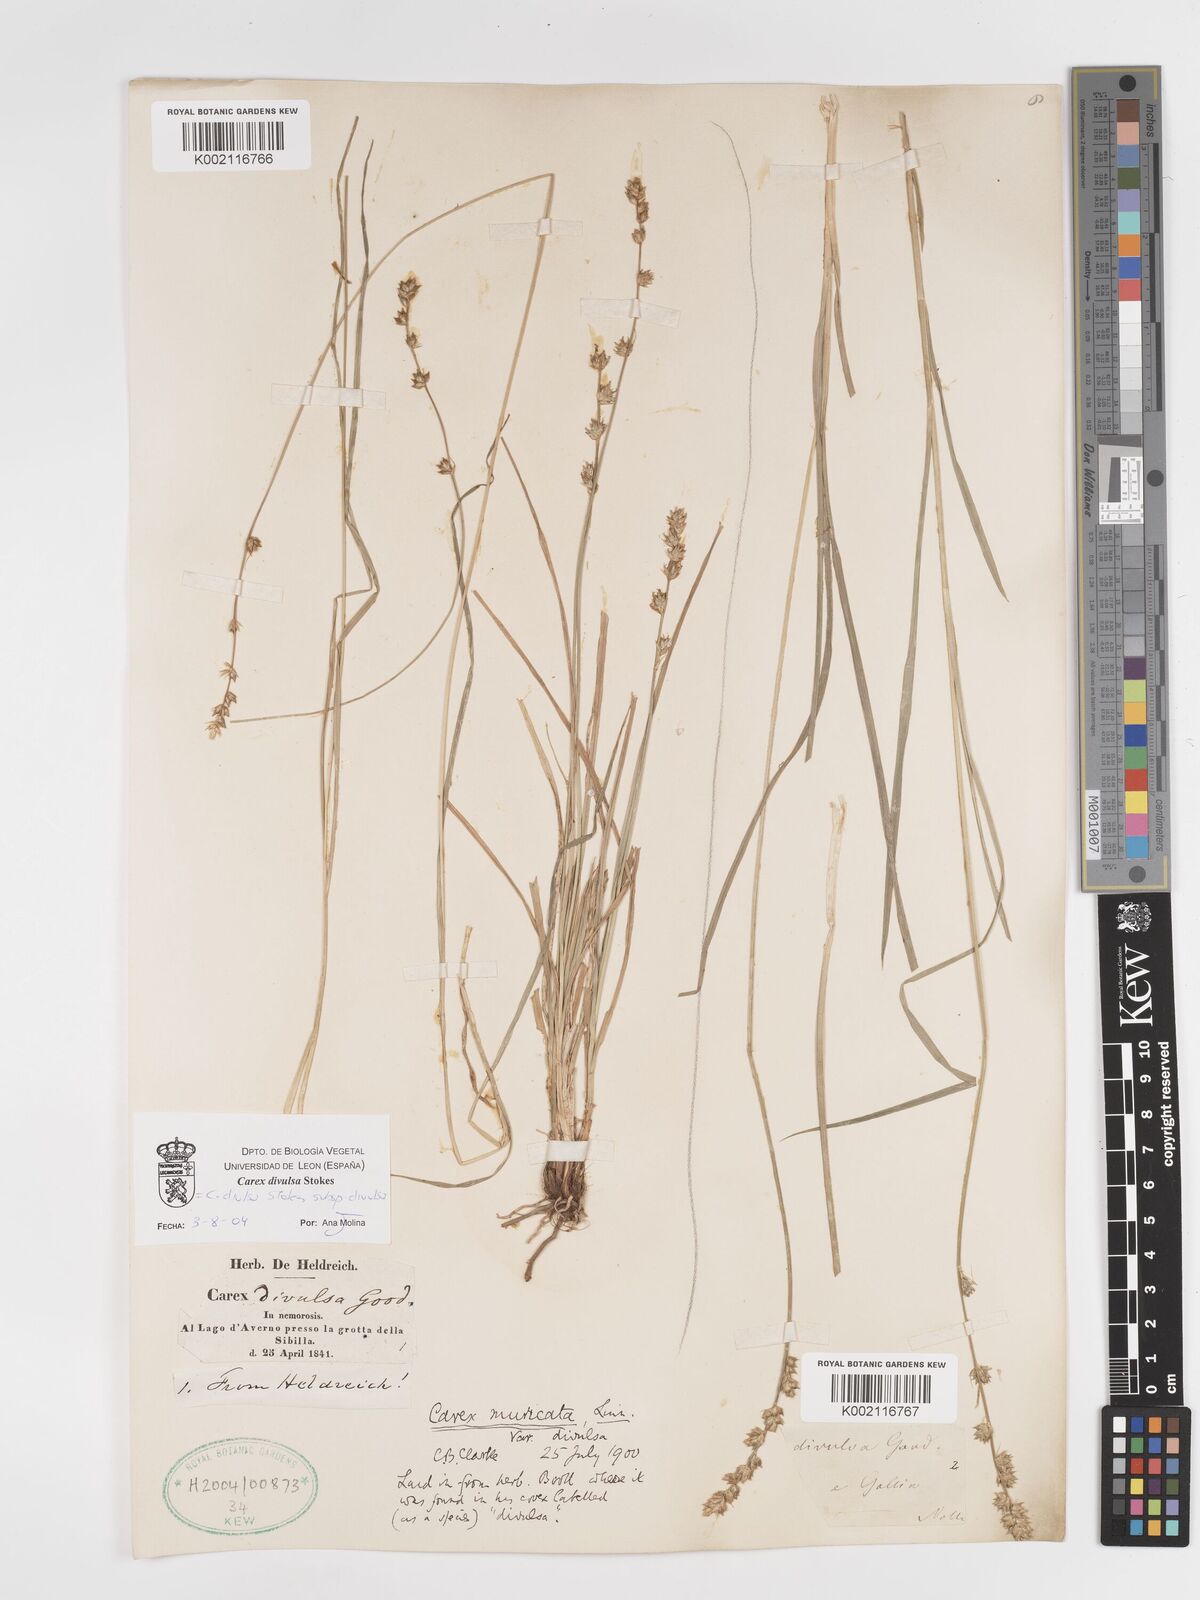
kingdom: Plantae
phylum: Tracheophyta
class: Liliopsida
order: Poales
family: Cyperaceae
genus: Carex
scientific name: Carex divulsa
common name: Grassland sedge
